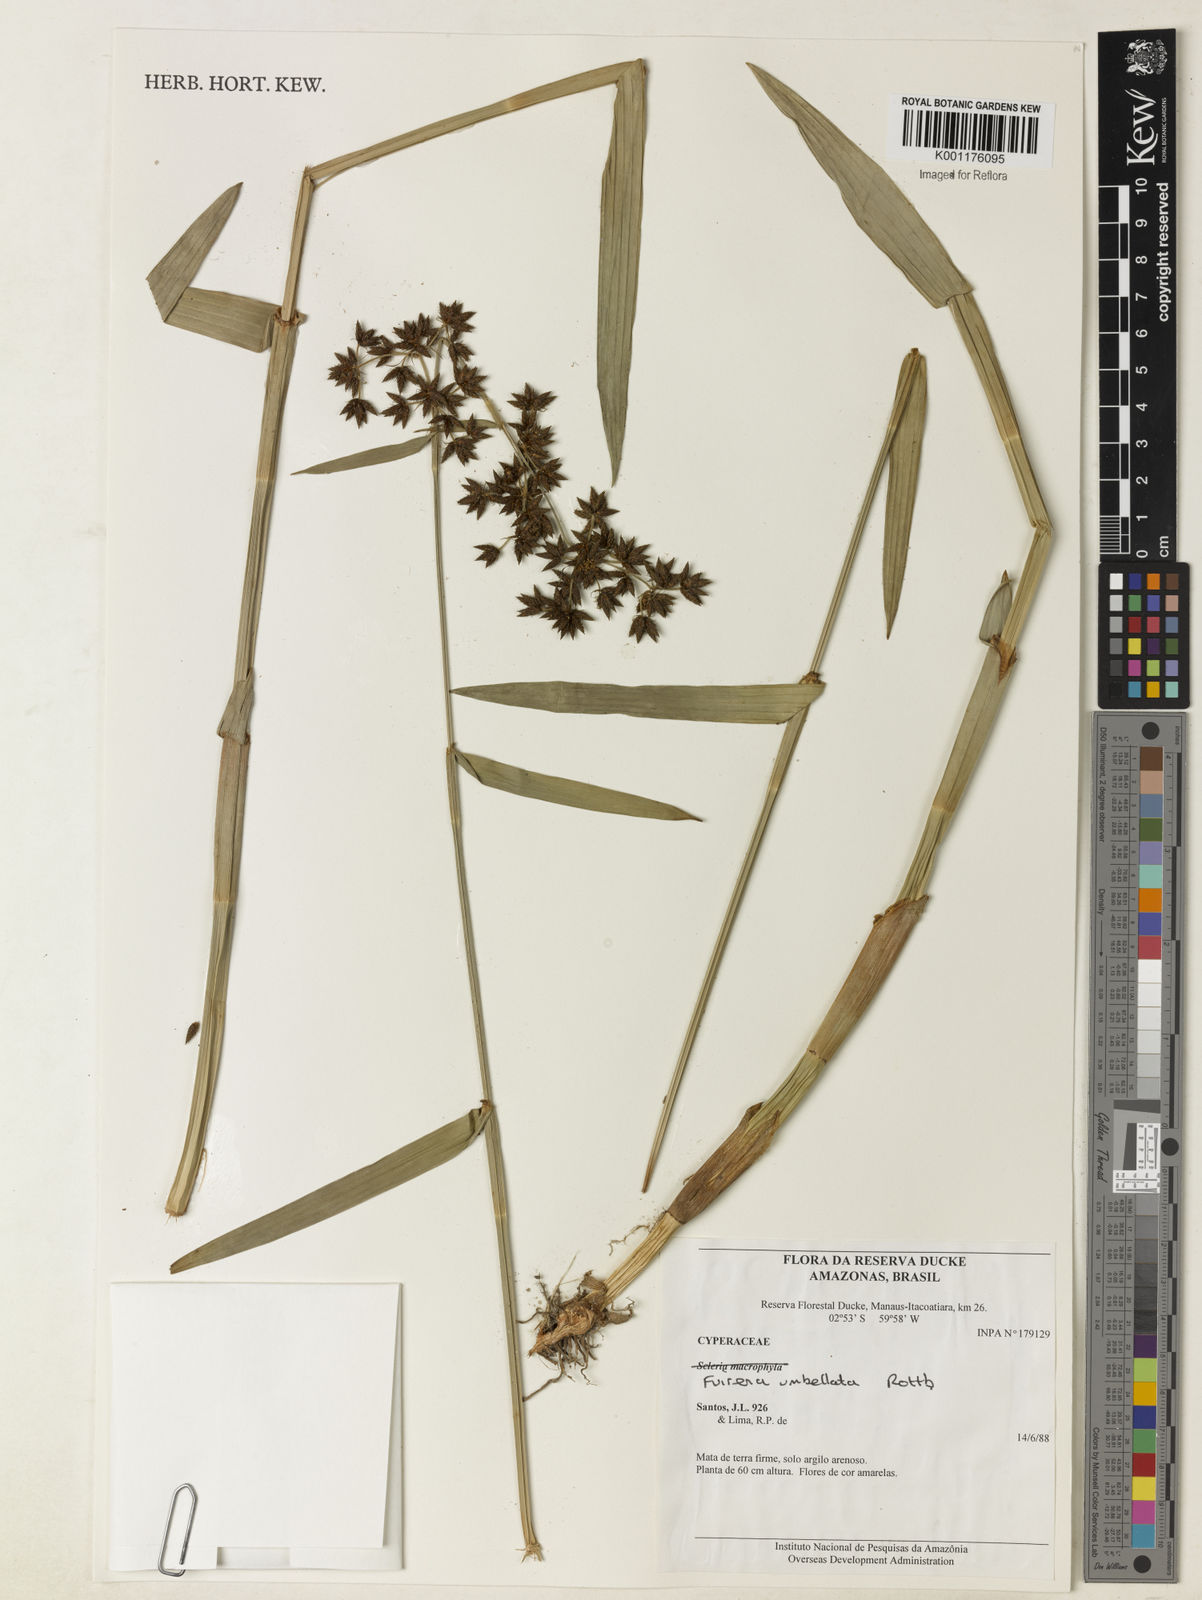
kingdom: Plantae
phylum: Tracheophyta
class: Liliopsida
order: Poales
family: Cyperaceae
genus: Fuirena
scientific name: Fuirena umbellata
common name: Yefen
